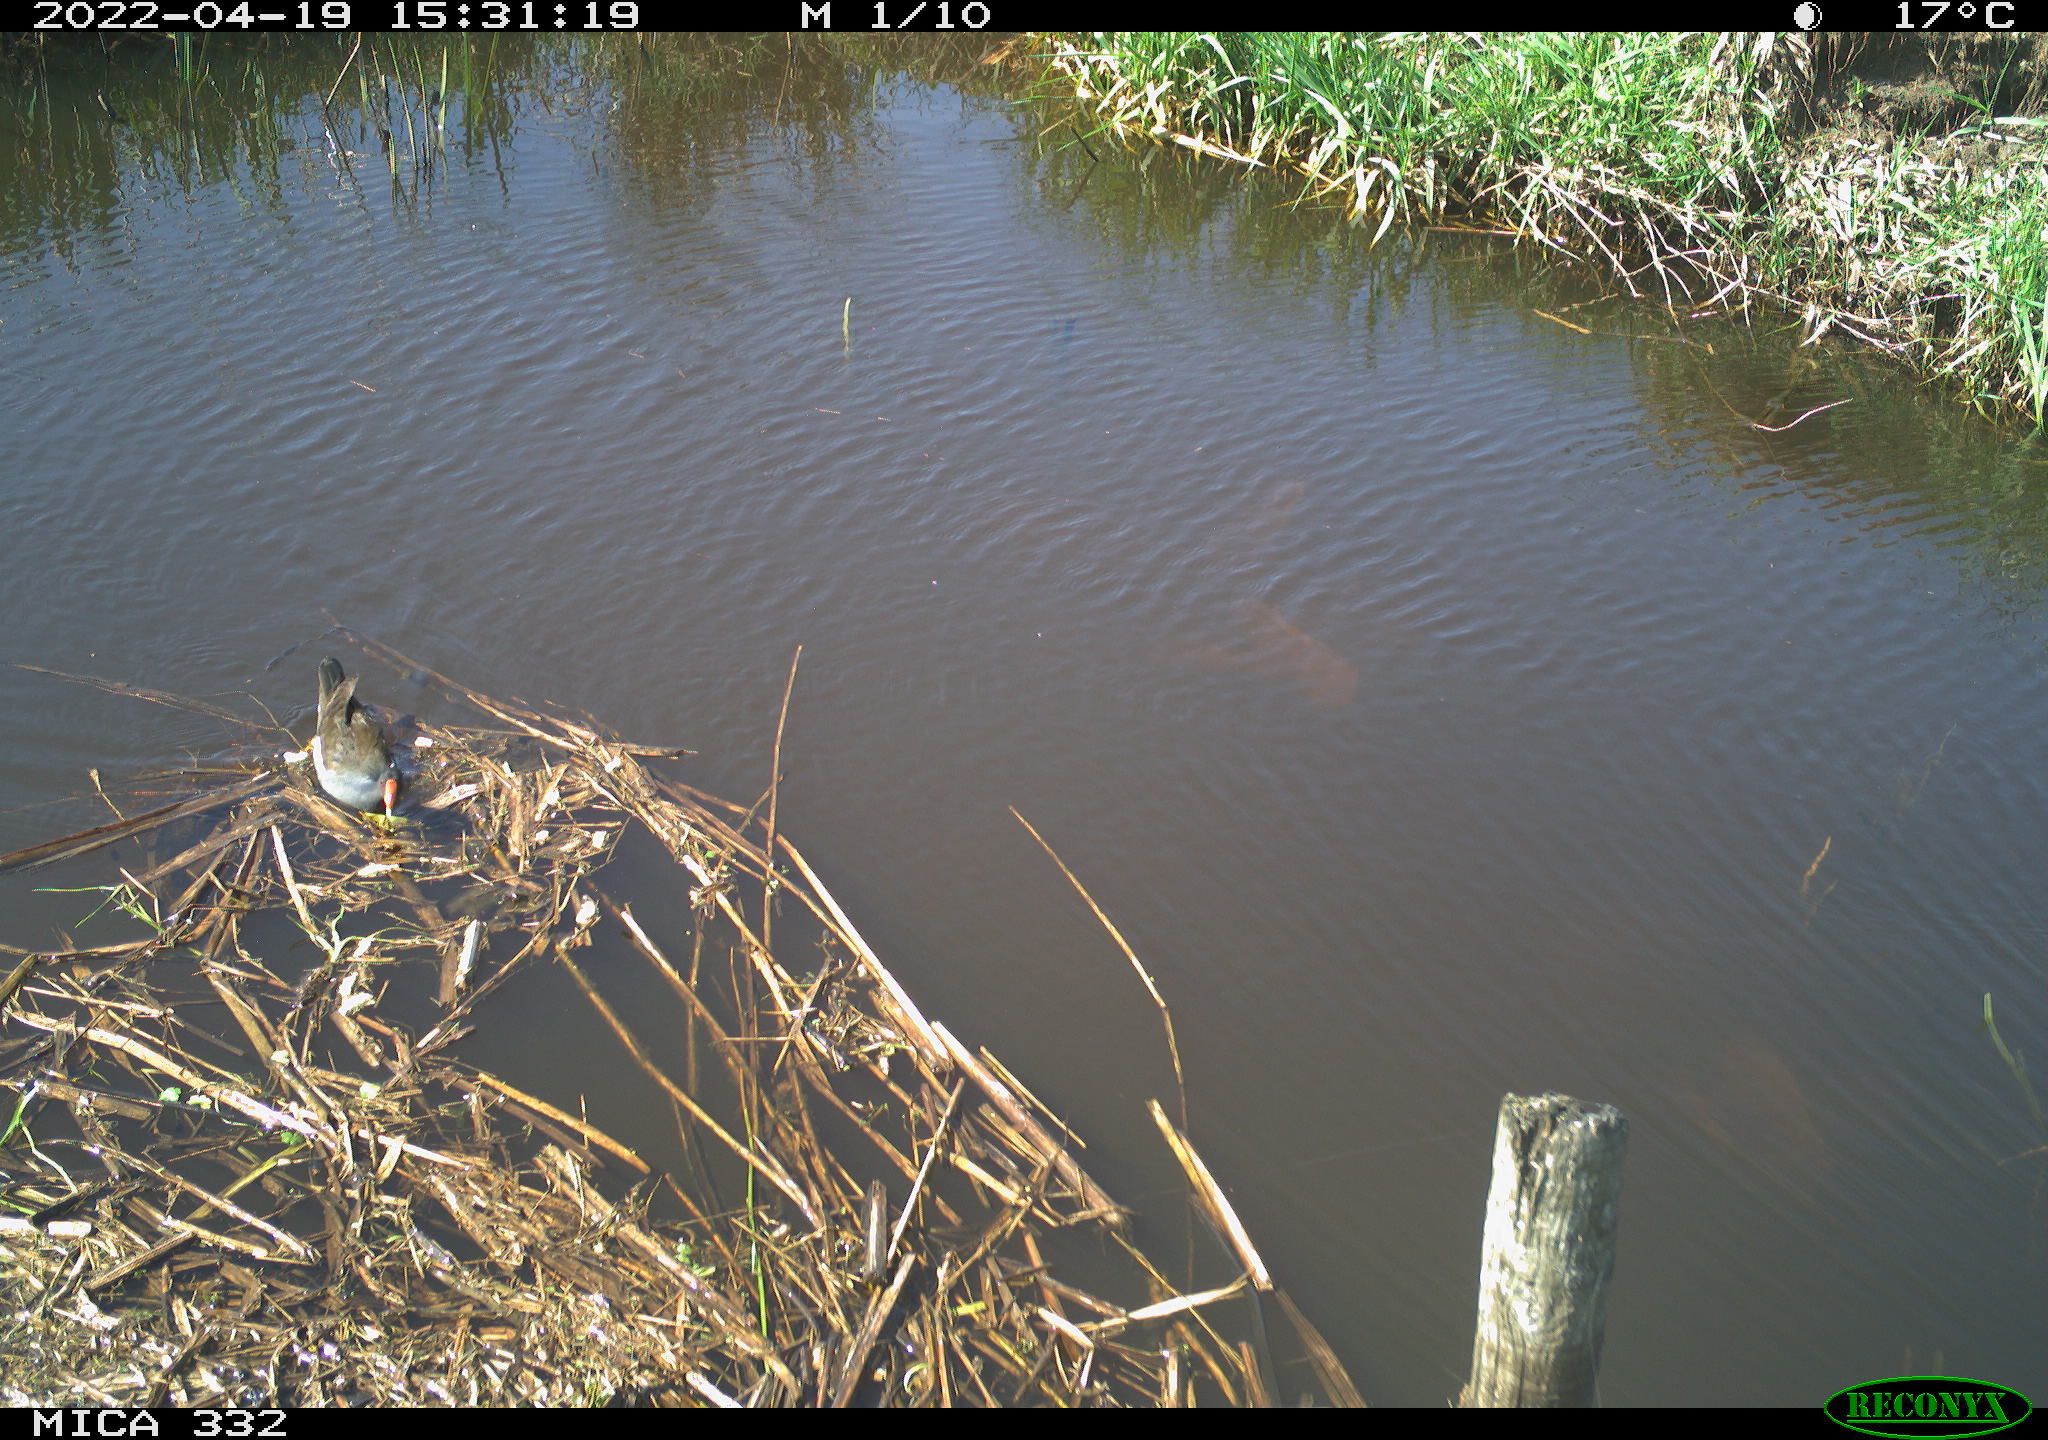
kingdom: Animalia
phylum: Chordata
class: Aves
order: Gruiformes
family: Rallidae
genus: Gallinula
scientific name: Gallinula chloropus
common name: Common moorhen
